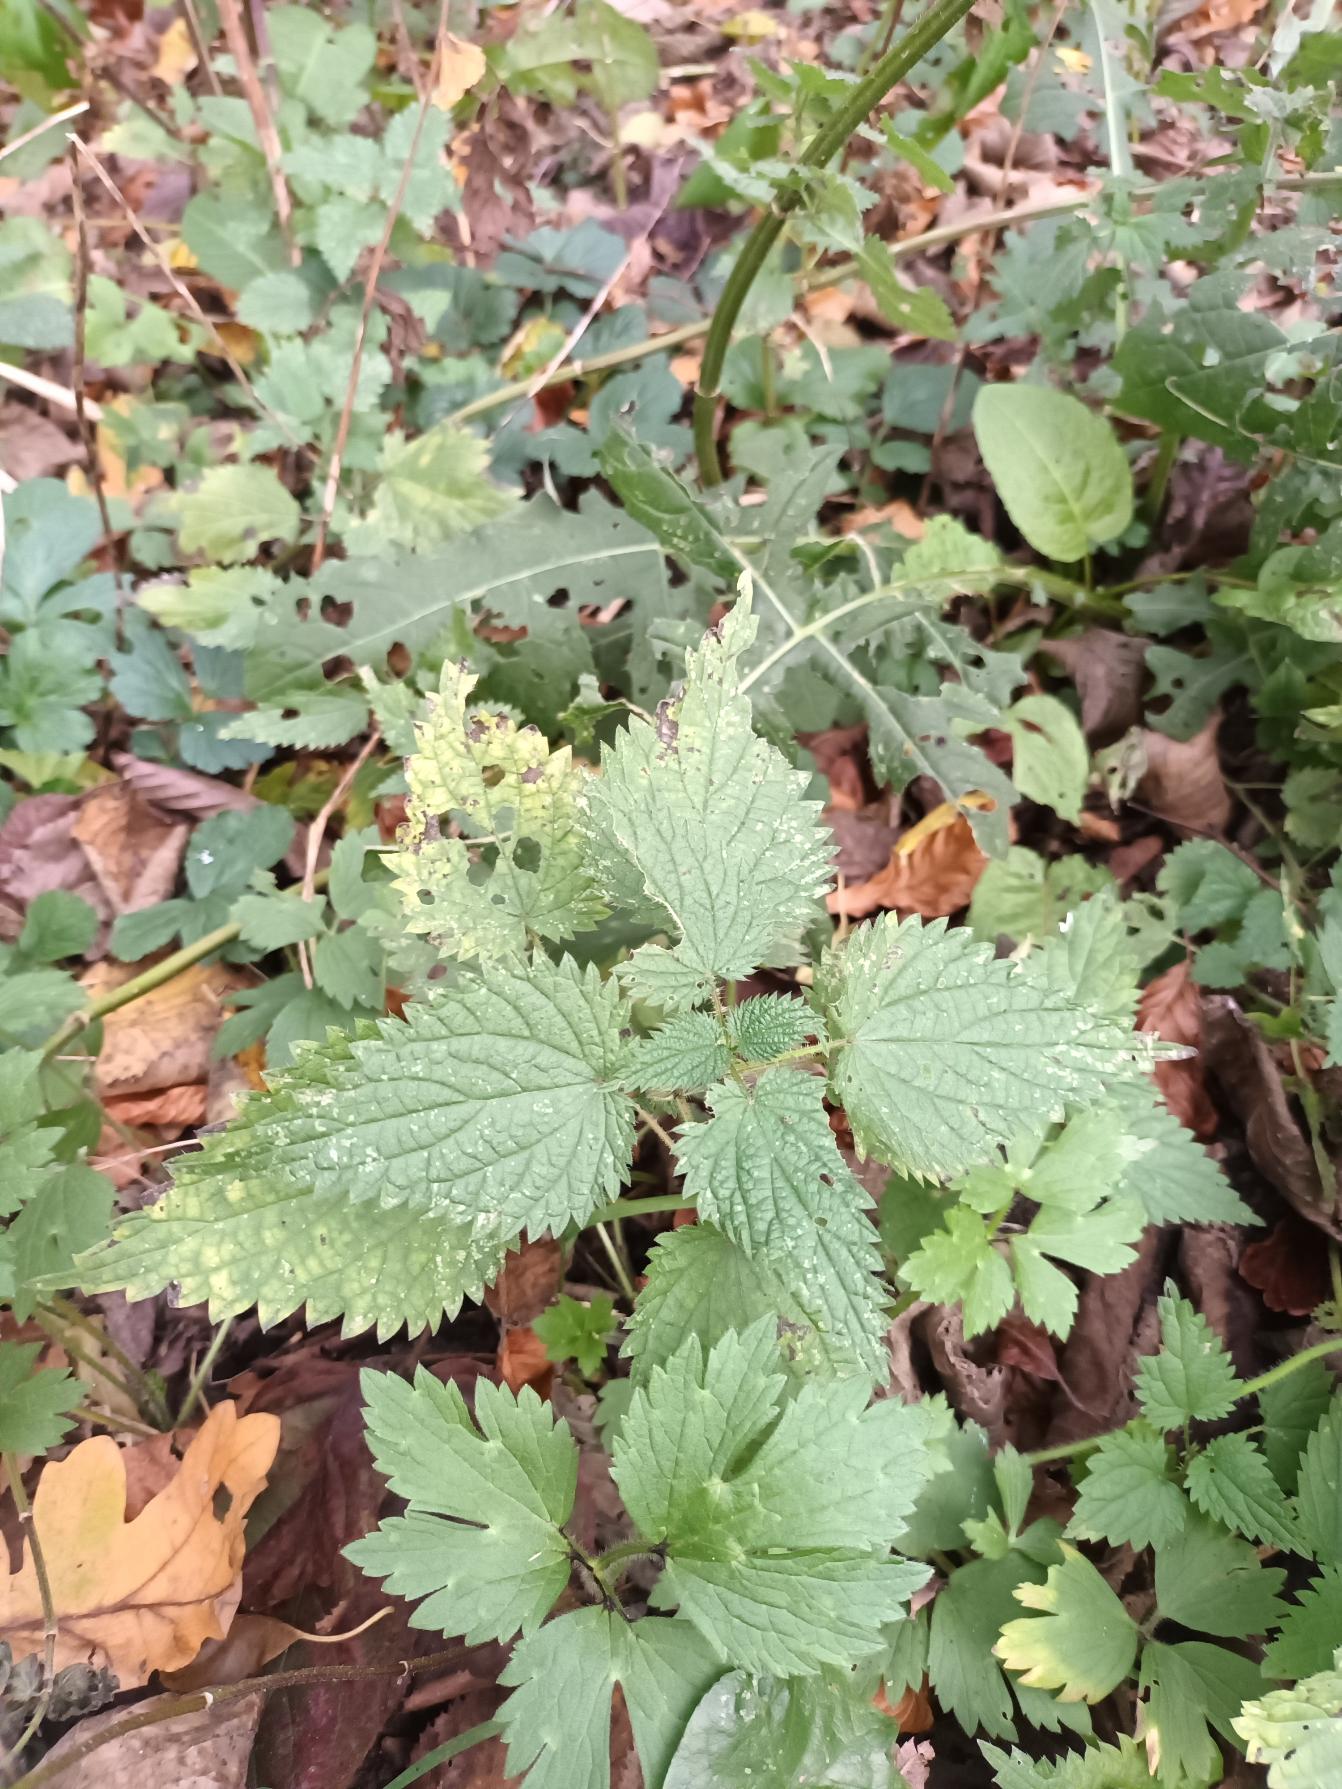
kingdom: Plantae
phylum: Tracheophyta
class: Magnoliopsida
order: Rosales
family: Urticaceae
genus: Urtica
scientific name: Urtica dioica
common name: Stor nælde
